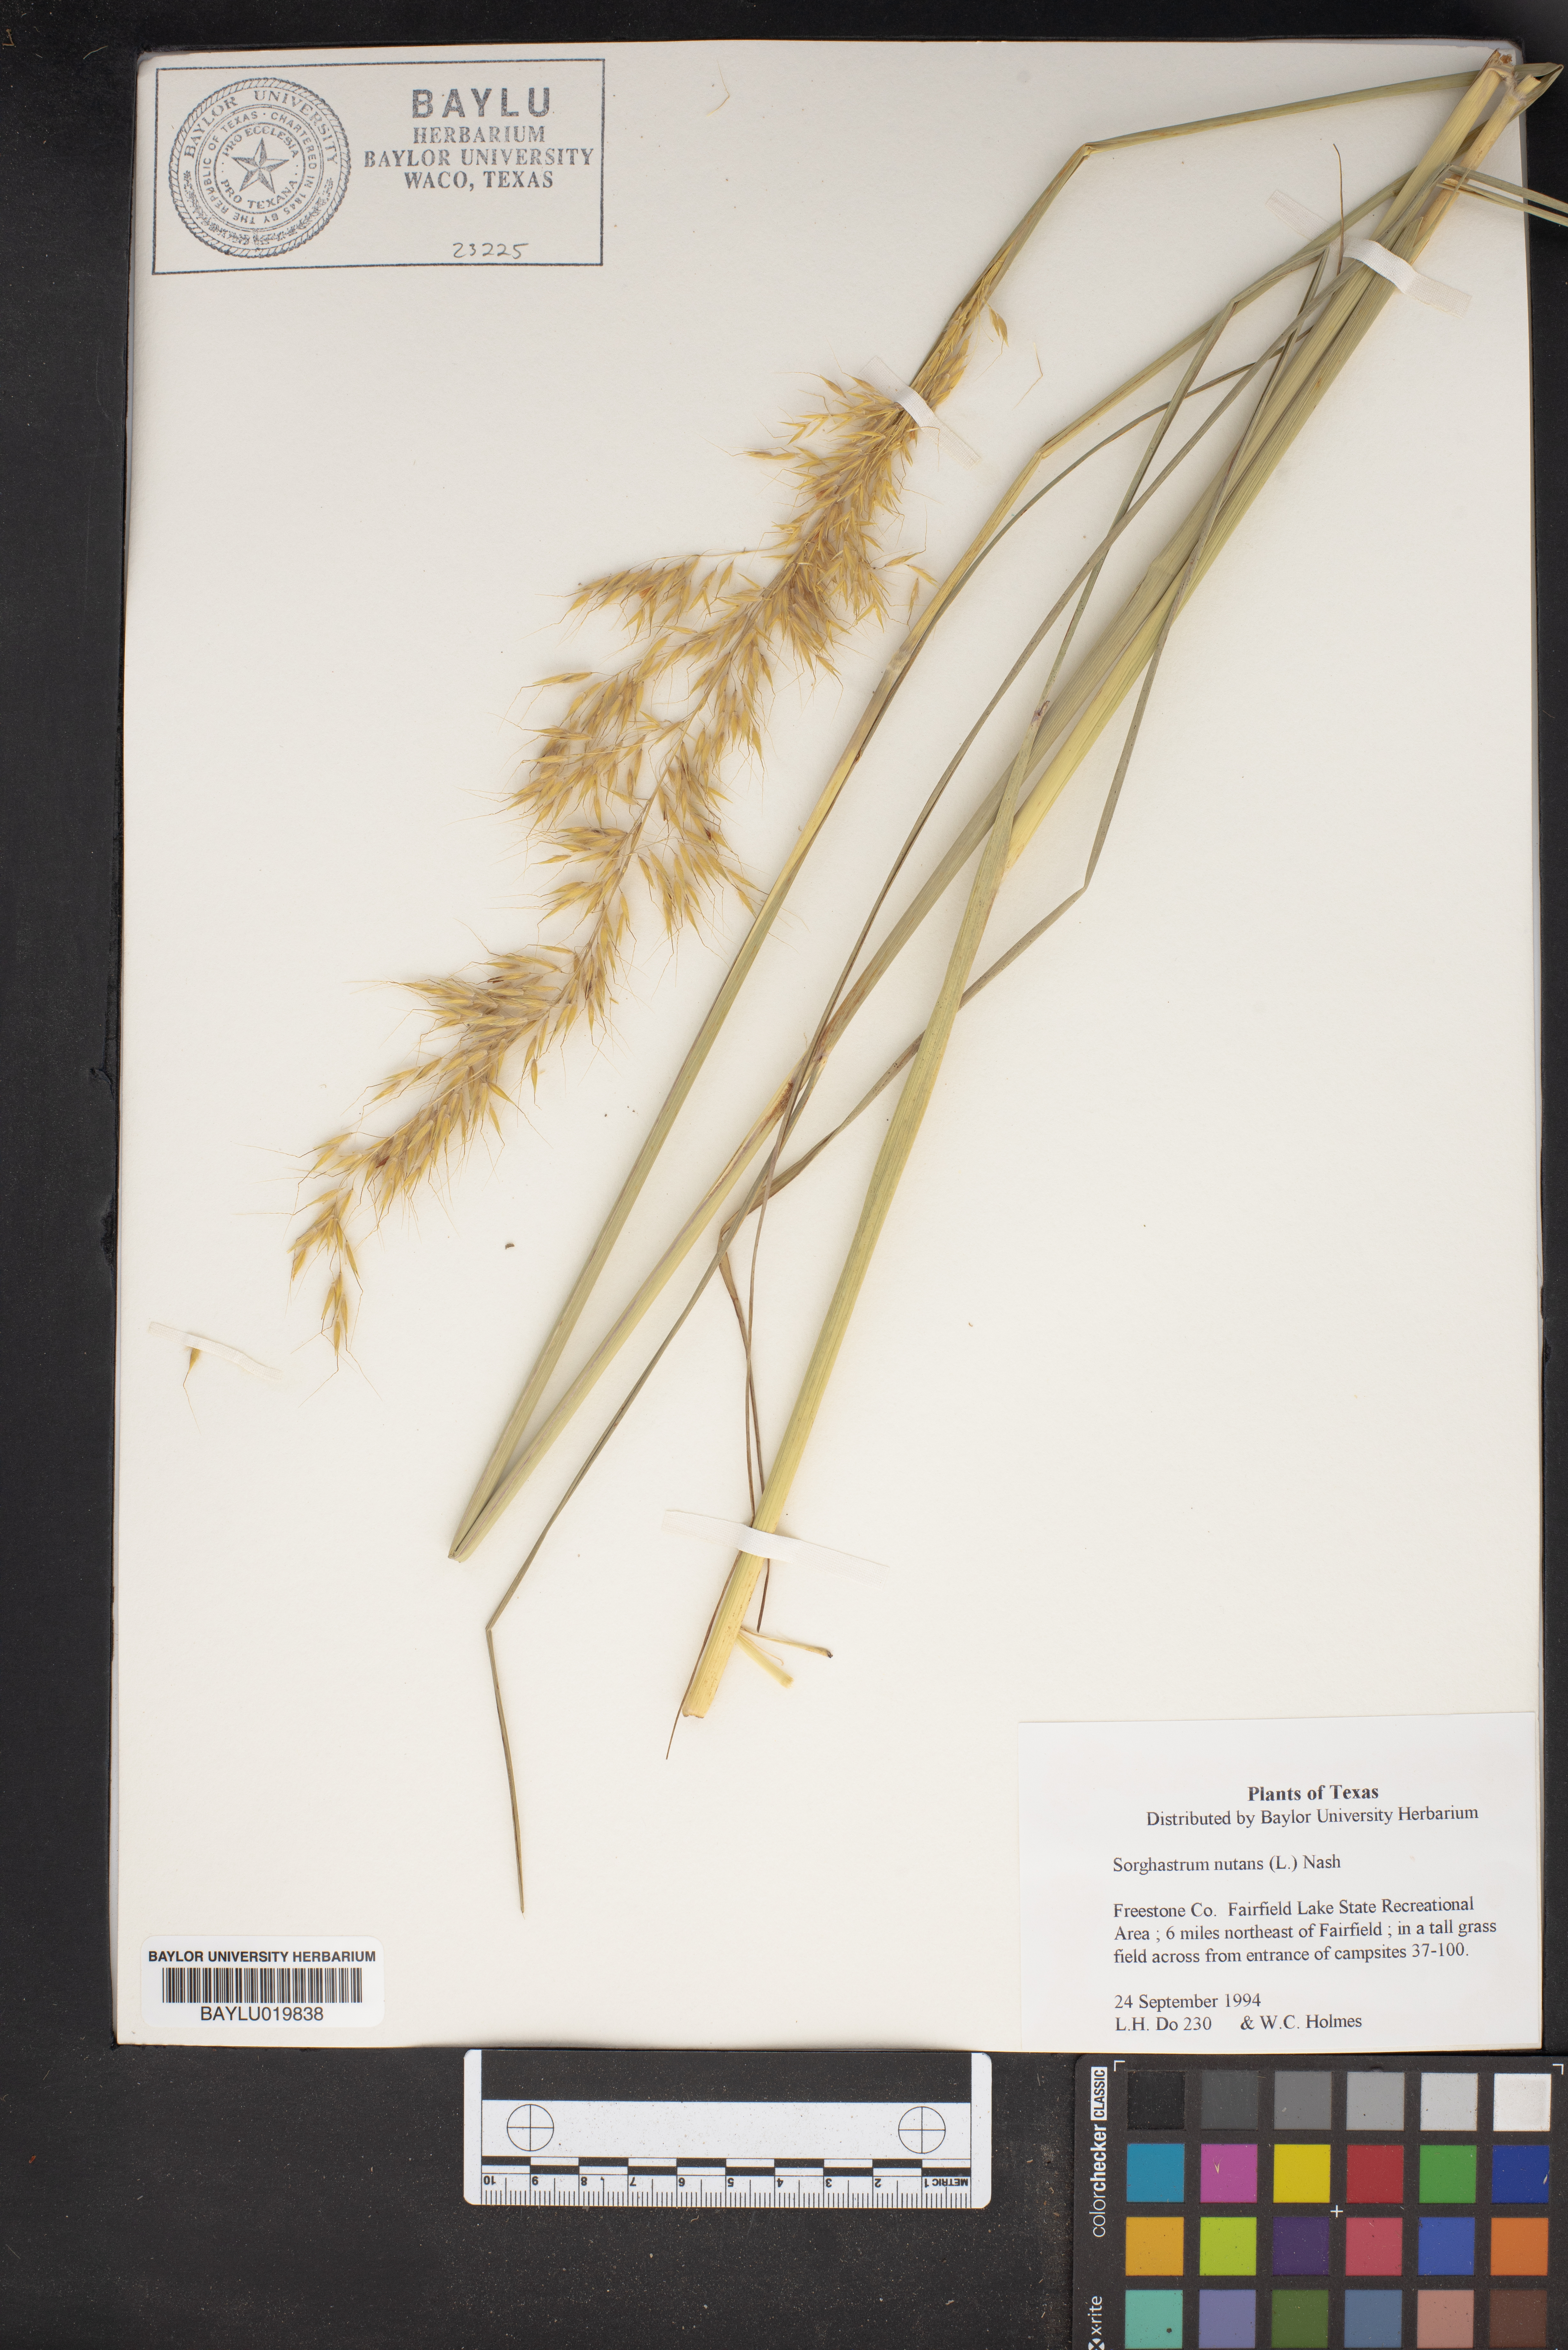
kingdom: Plantae
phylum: Tracheophyta
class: Liliopsida
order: Poales
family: Poaceae
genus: Sorghastrum
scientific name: Sorghastrum nutans
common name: Indian grass
